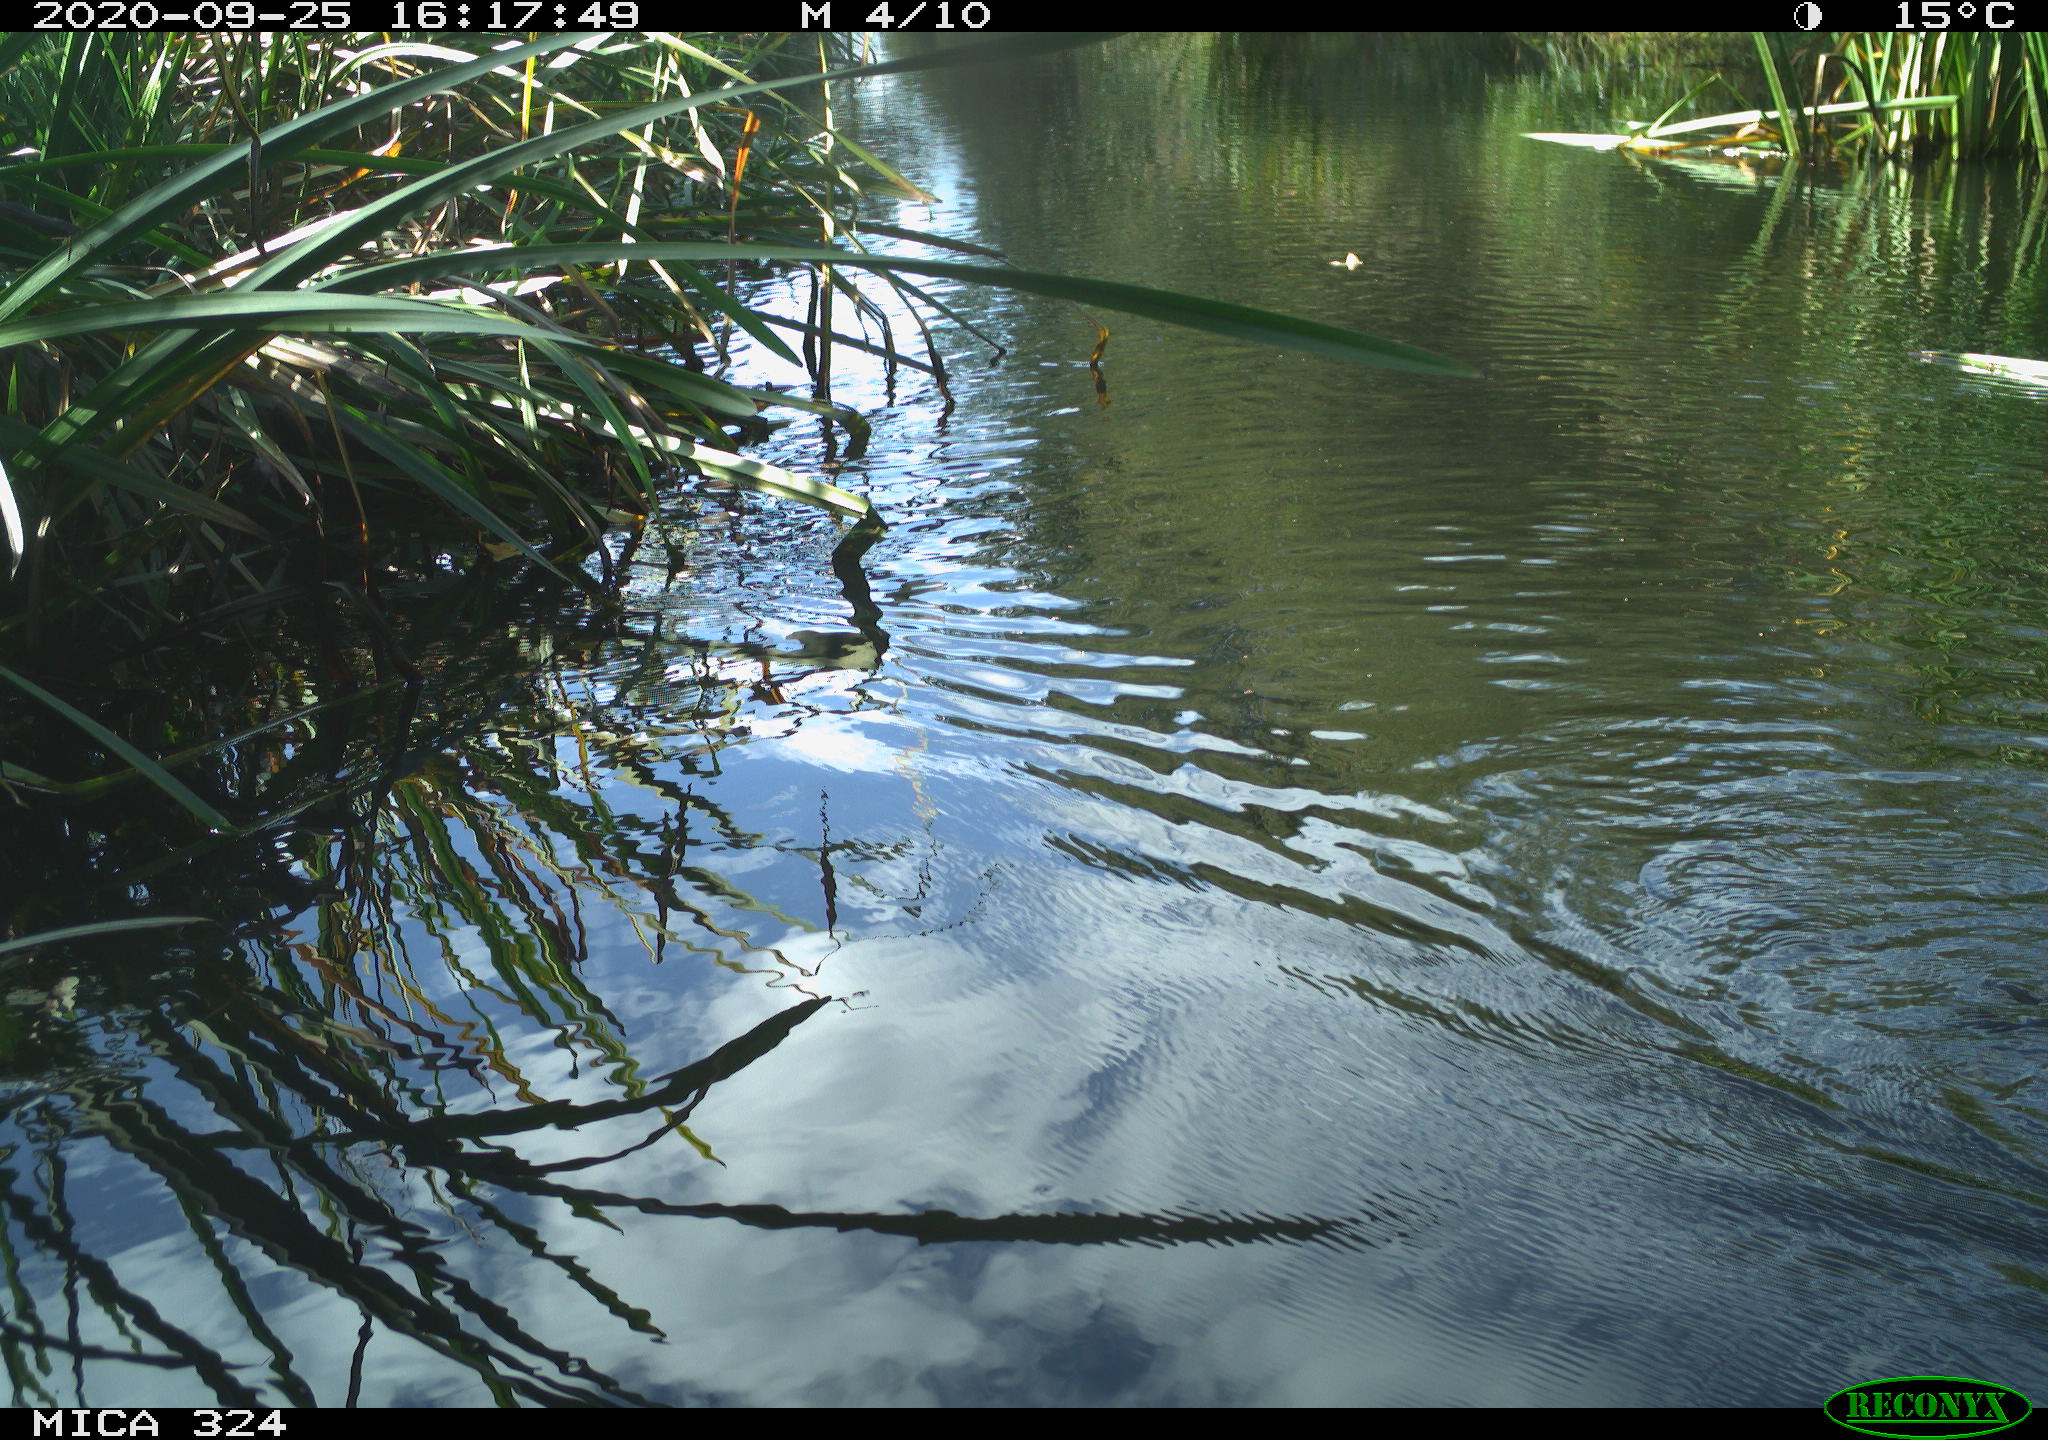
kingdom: Animalia
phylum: Chordata
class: Mammalia
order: Rodentia
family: Cricetidae
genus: Ondatra
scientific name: Ondatra zibethicus
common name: Muskrat
